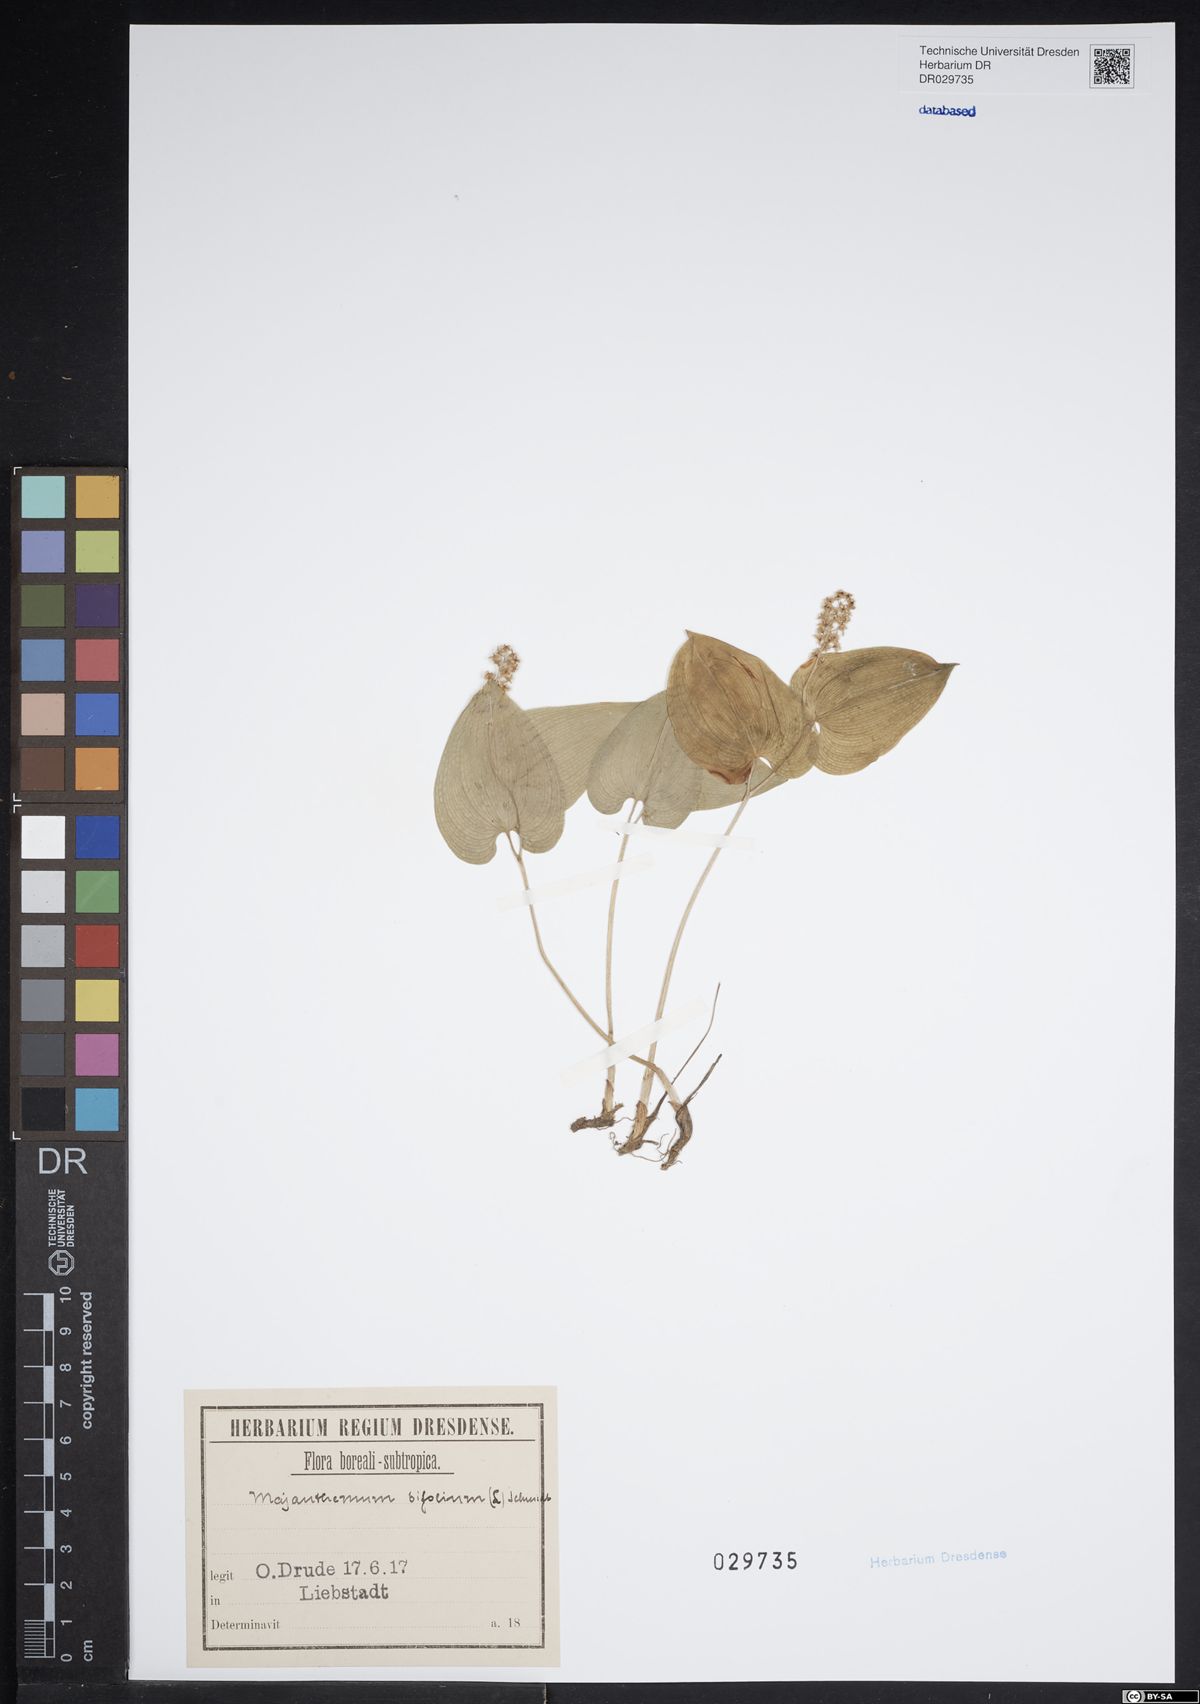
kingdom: Plantae
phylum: Tracheophyta
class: Liliopsida
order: Asparagales
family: Asparagaceae
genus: Maianthemum
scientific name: Maianthemum bifolium
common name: May lily
